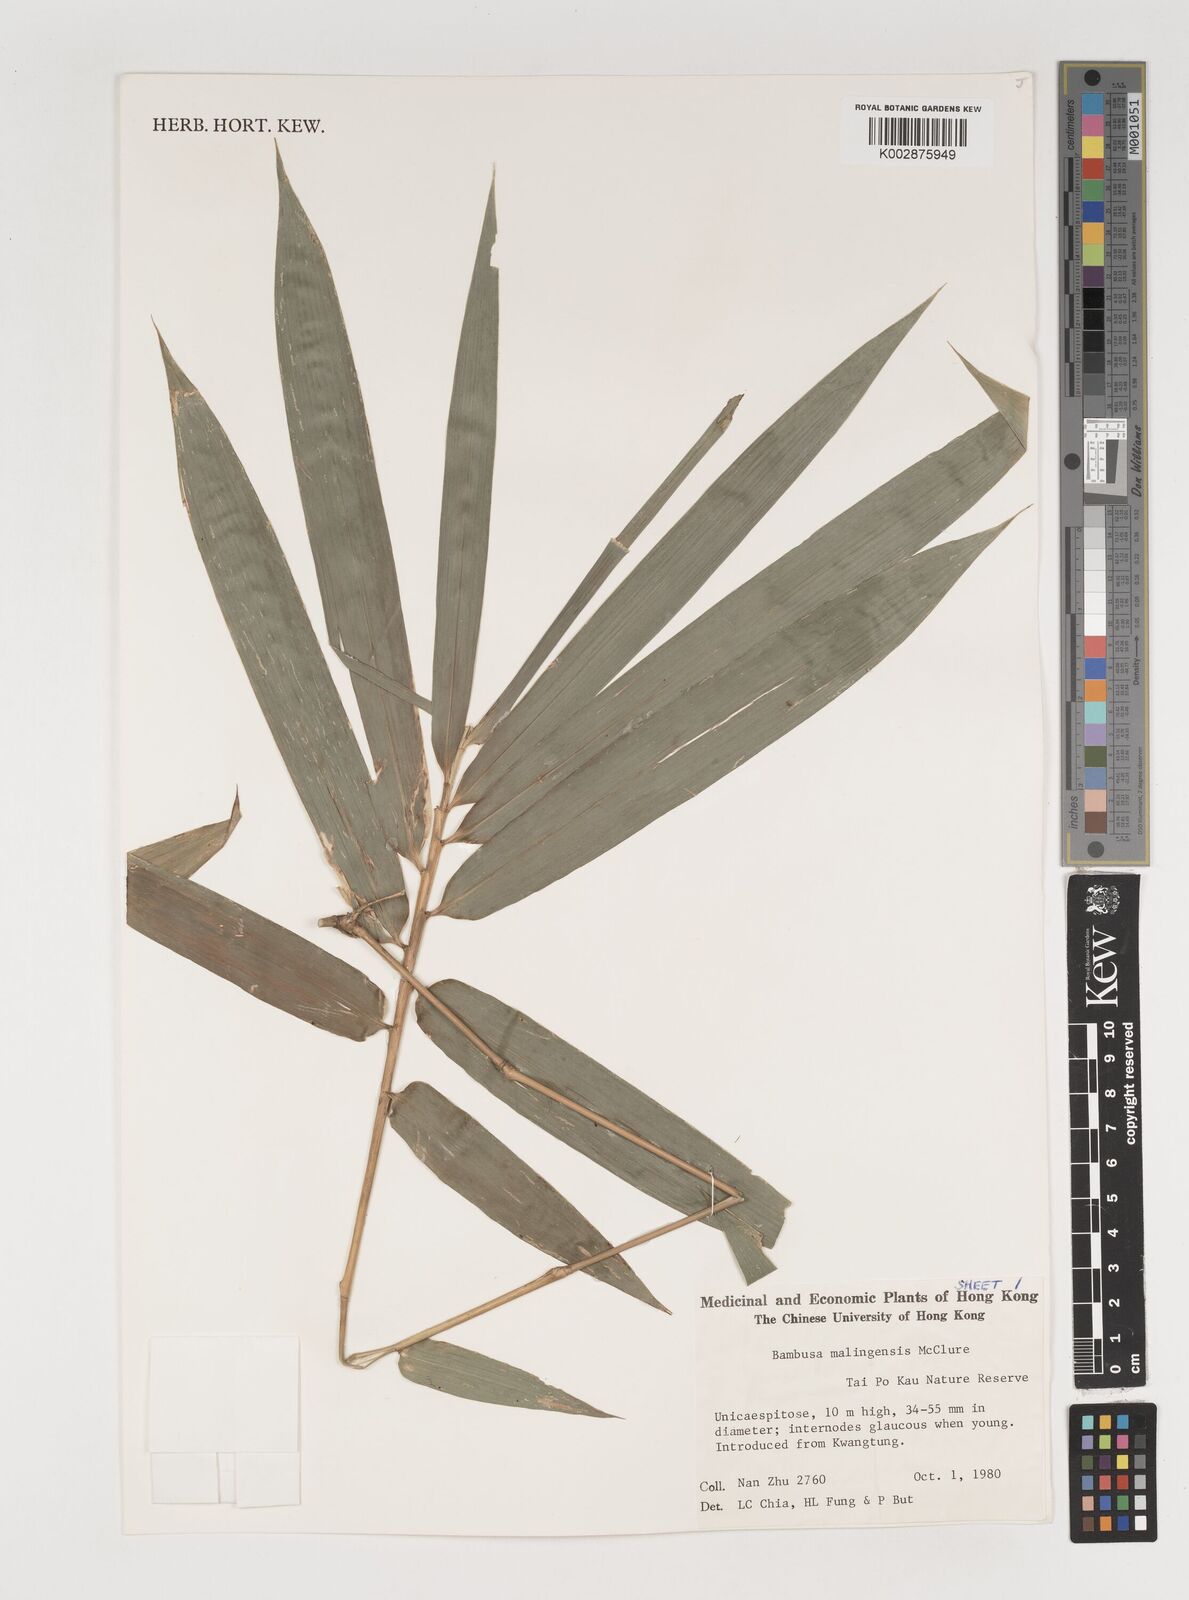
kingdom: Plantae
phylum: Tracheophyta
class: Liliopsida
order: Poales
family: Poaceae
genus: Bambusa
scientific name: Bambusa malingensis
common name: Maling bamboo
